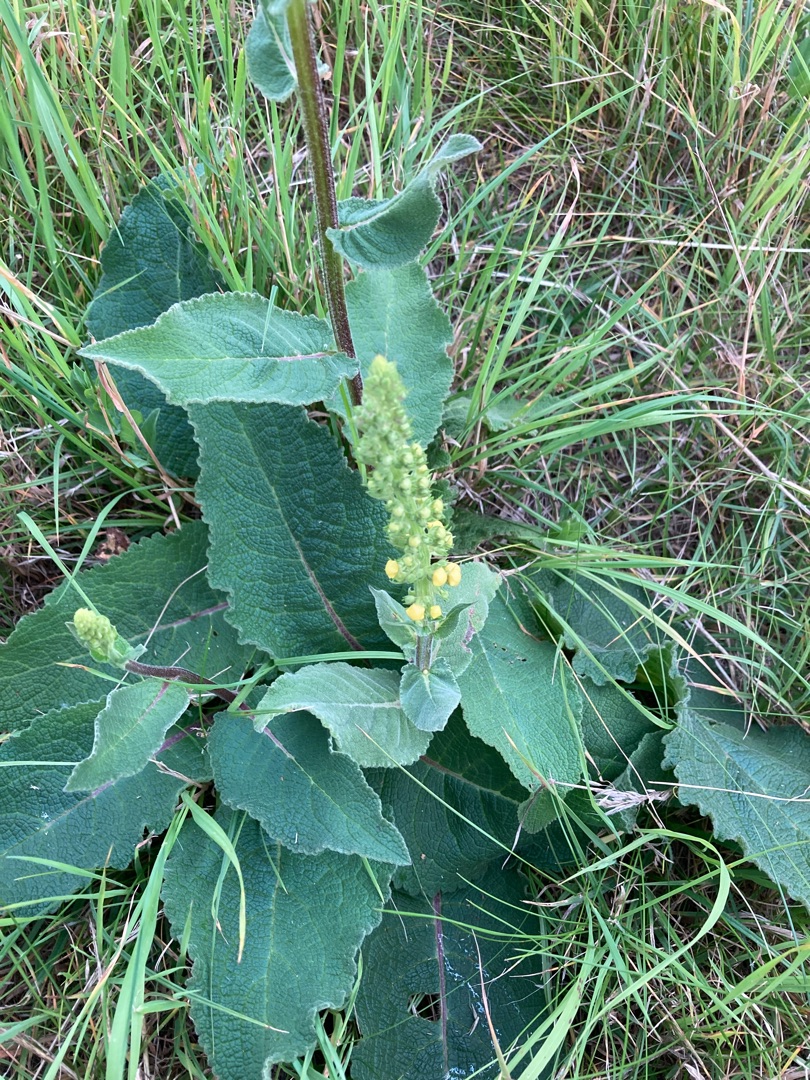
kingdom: Plantae
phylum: Tracheophyta
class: Magnoliopsida
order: Lamiales
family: Scrophulariaceae
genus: Verbascum
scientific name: Verbascum nigrum
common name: Mørk kongelys
